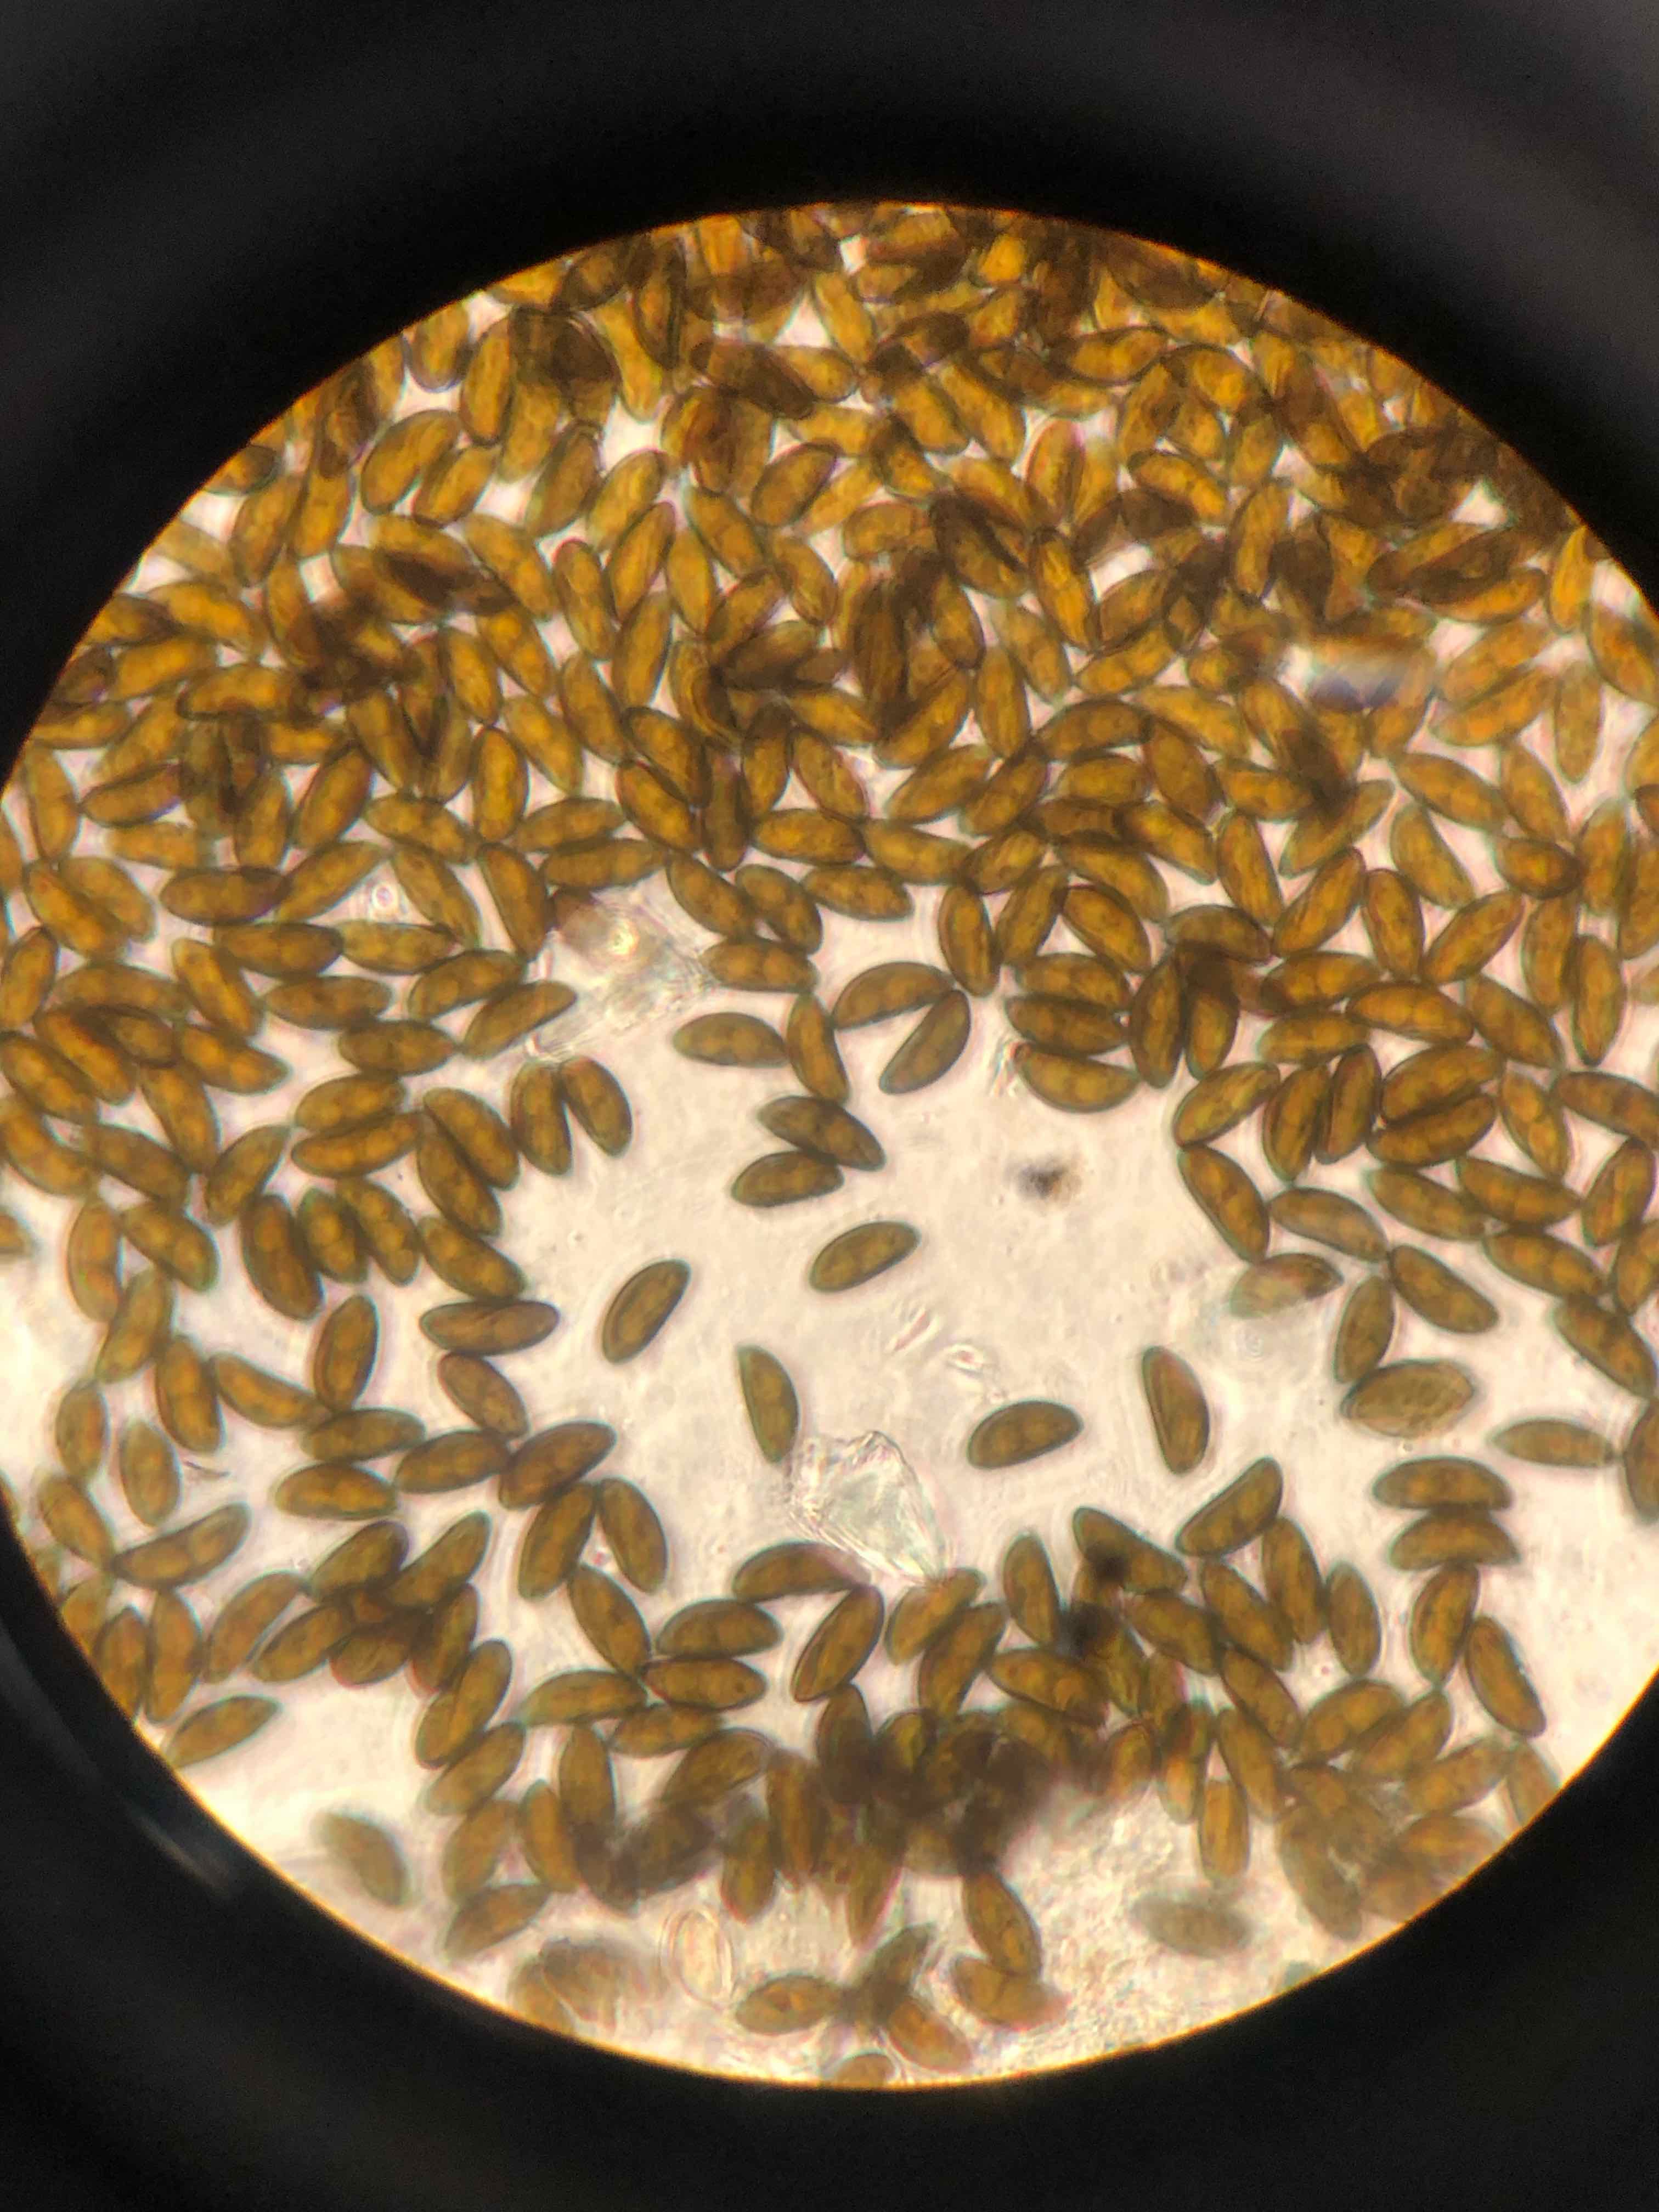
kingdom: Fungi
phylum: Ascomycota
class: Sordariomycetes
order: Xylariales
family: Xylariaceae
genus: Xylaria
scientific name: Xylaria longipes
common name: slank stødsvamp
